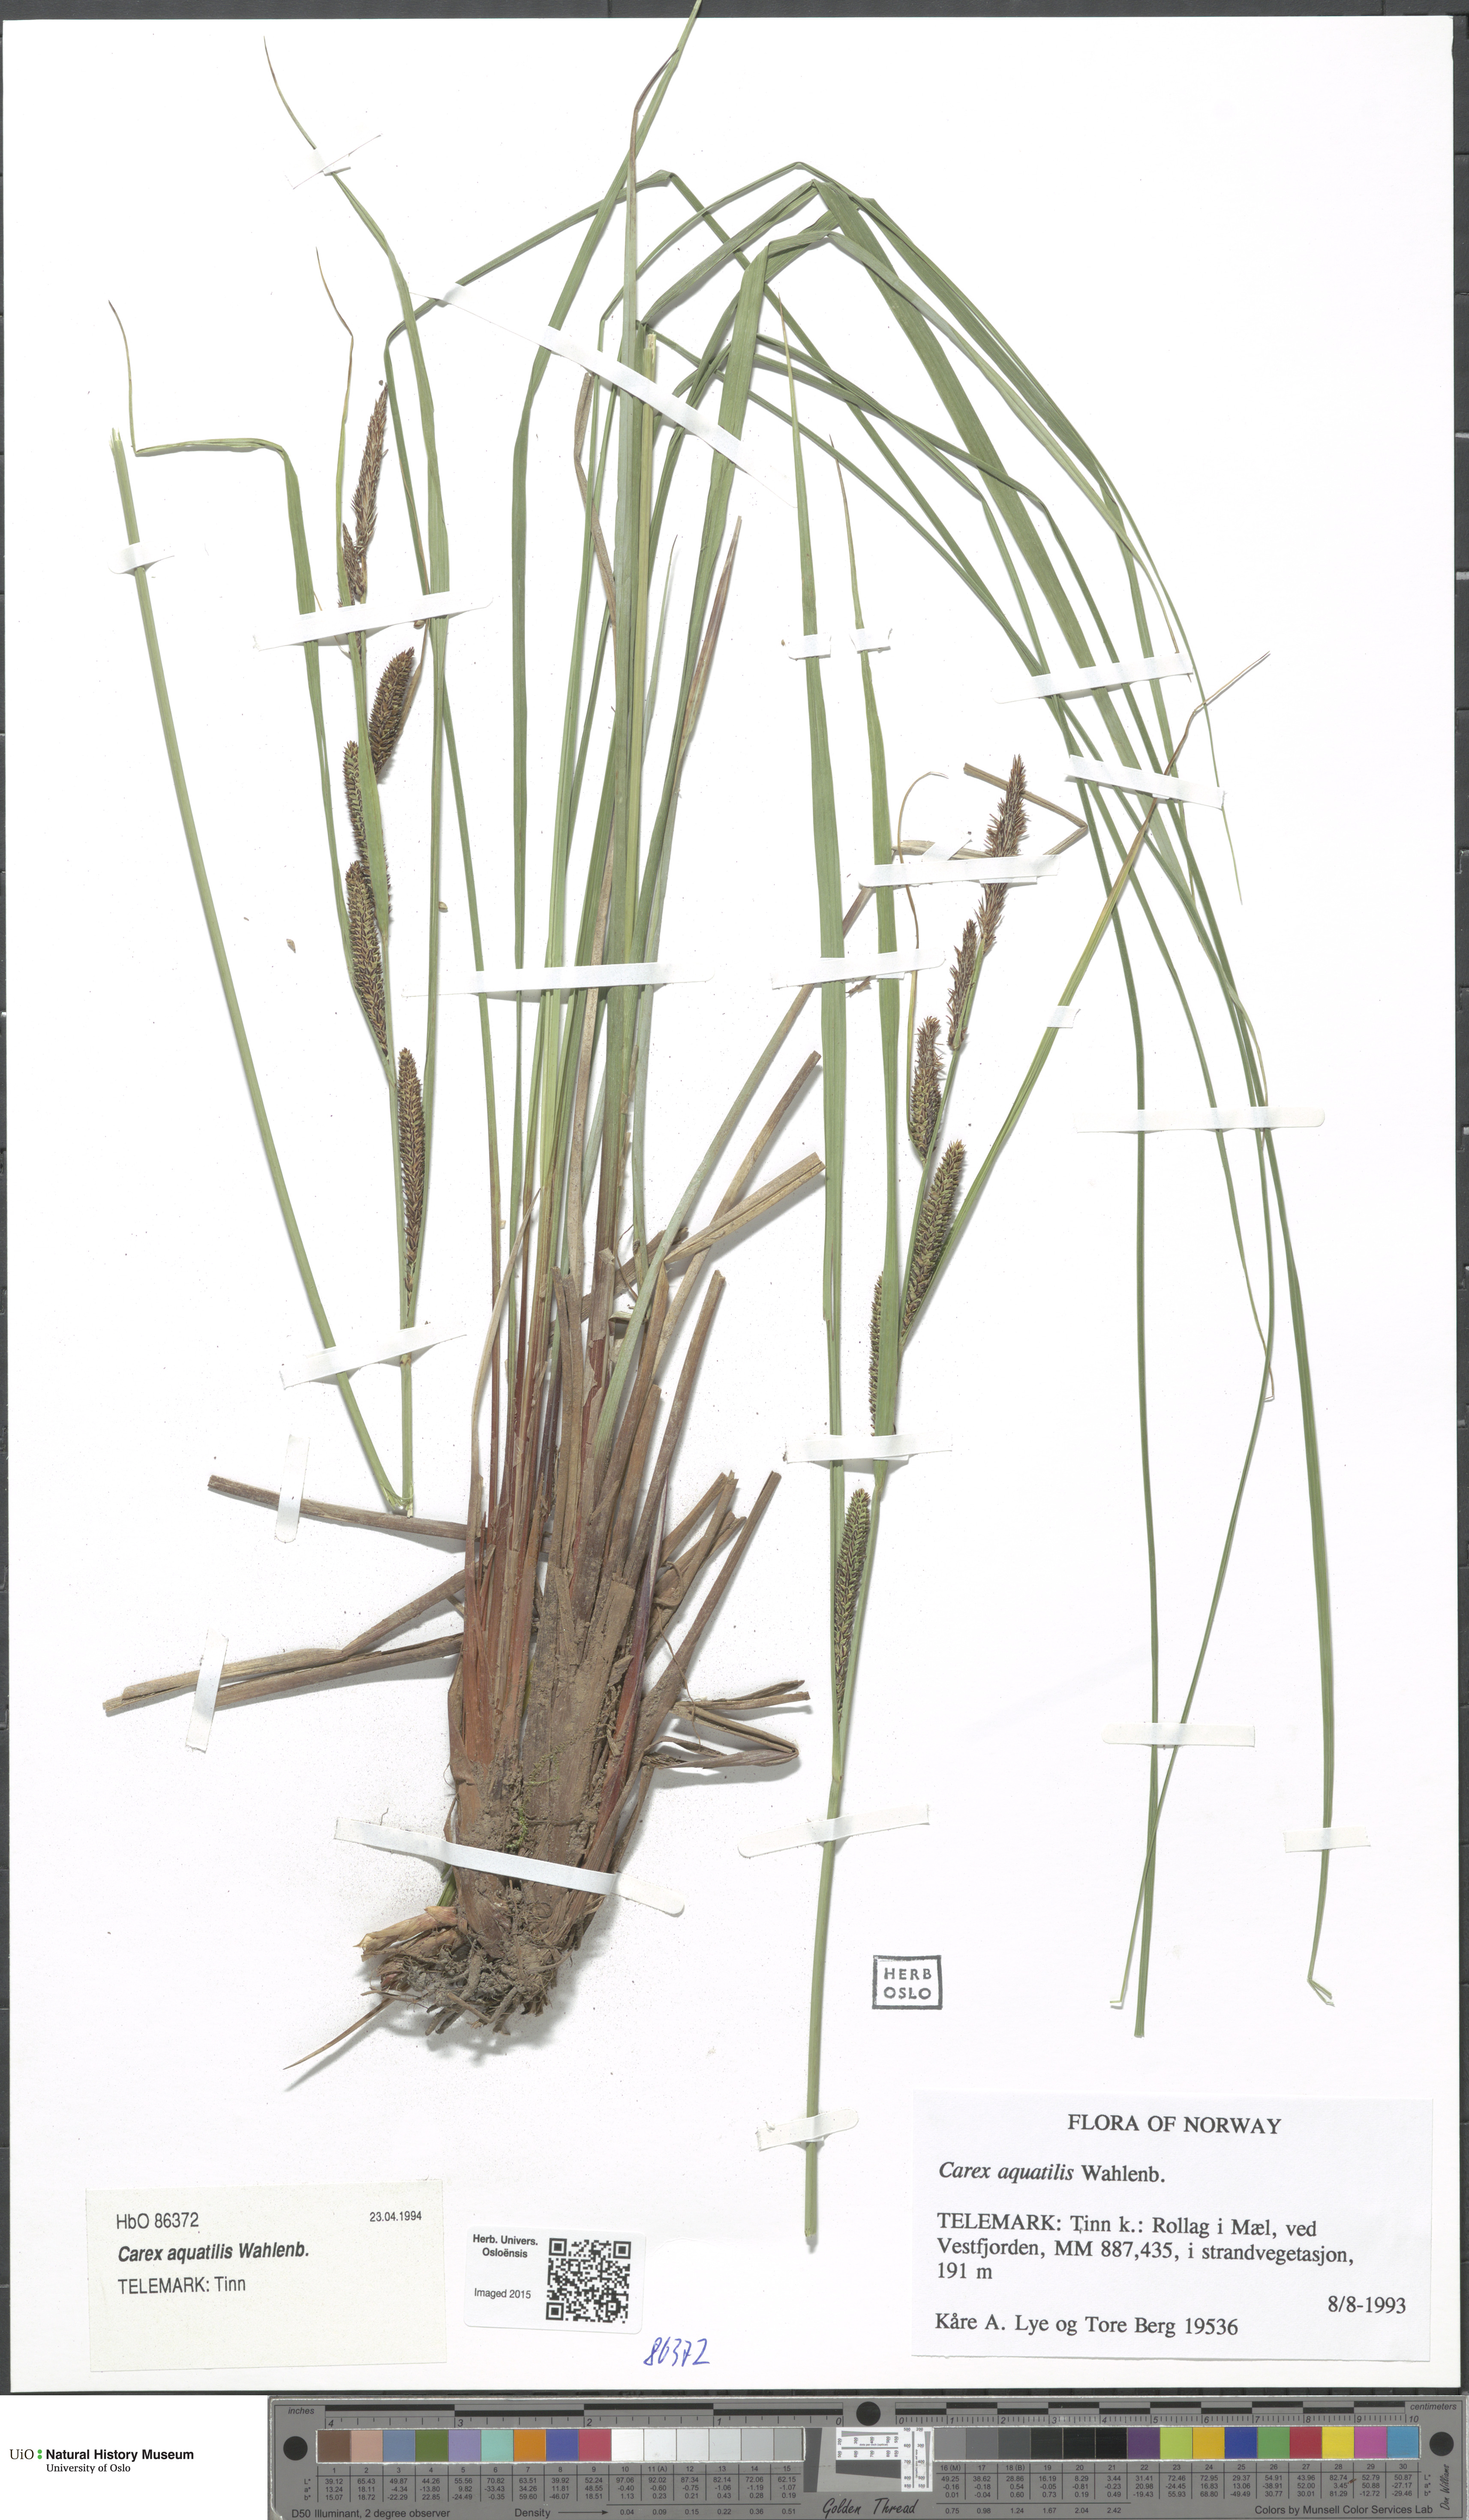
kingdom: Plantae
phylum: Tracheophyta
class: Liliopsida
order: Poales
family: Cyperaceae
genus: Carex
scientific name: Carex aquatilis
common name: Water sedge
